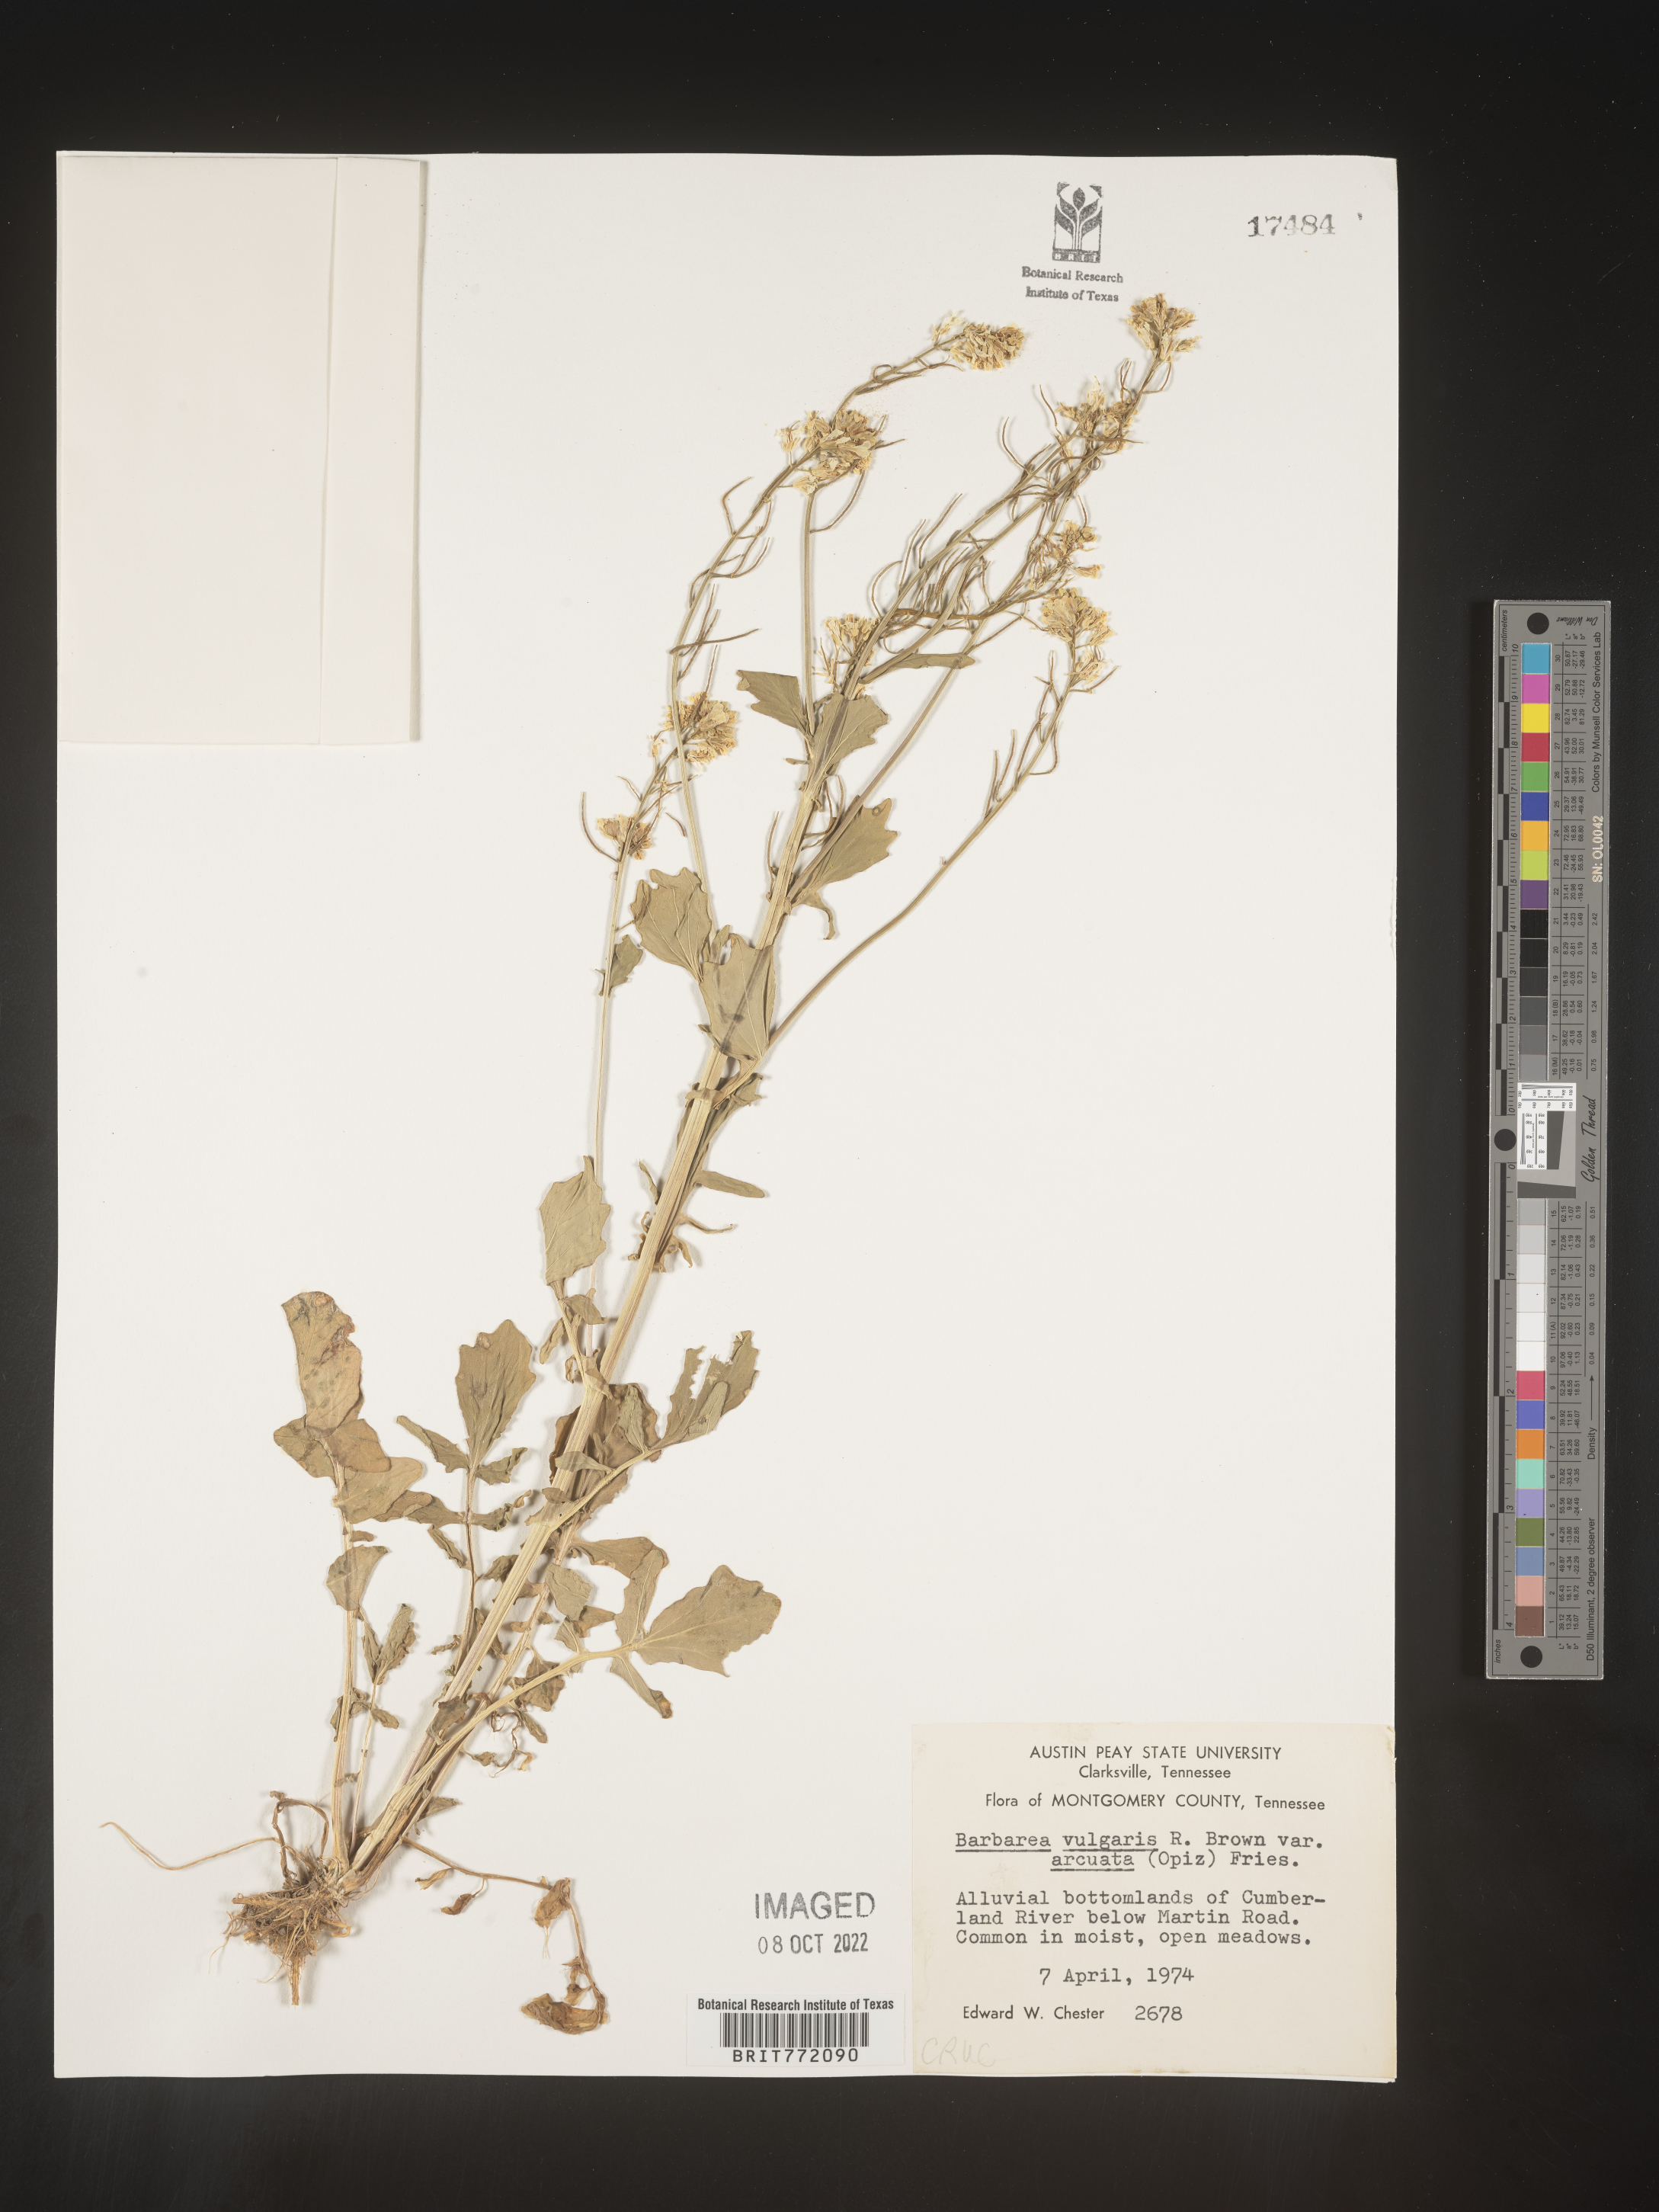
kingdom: Plantae
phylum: Tracheophyta
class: Magnoliopsida
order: Brassicales
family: Brassicaceae
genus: Barbarea
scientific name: Barbarea vulgaris
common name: Cressy-greens
